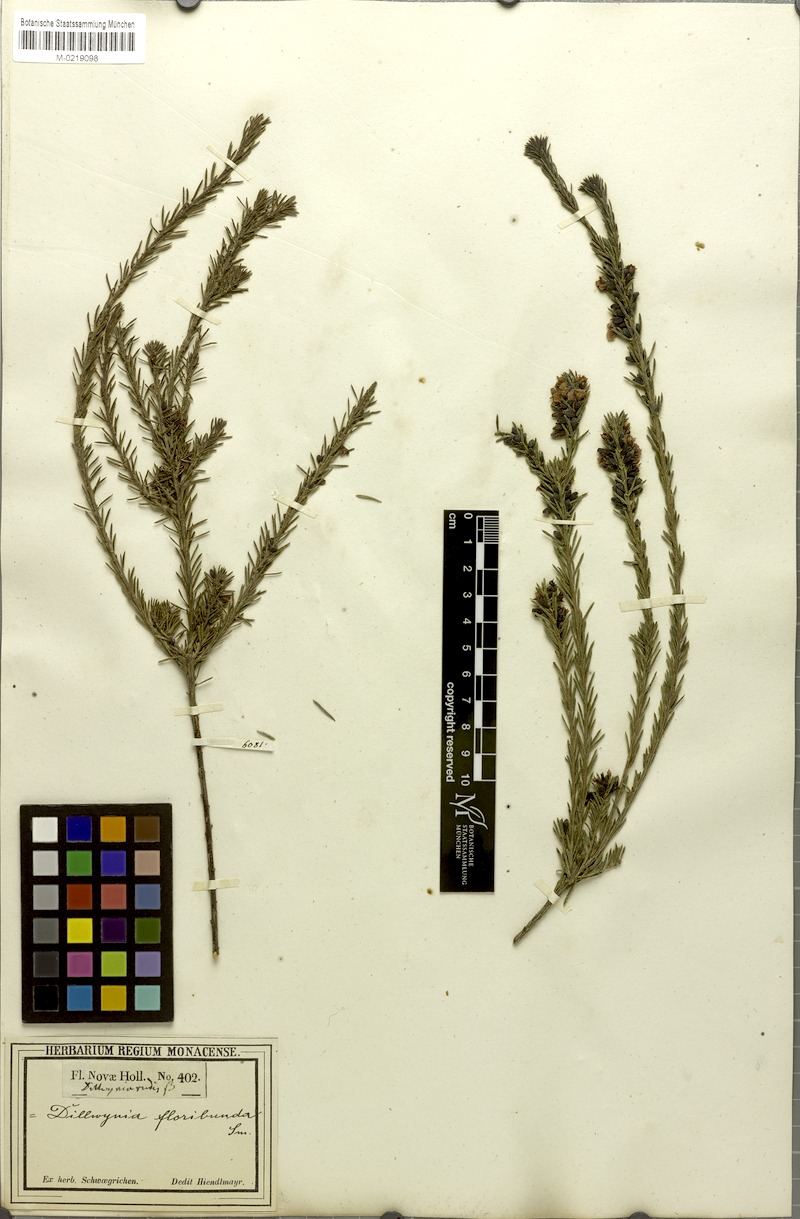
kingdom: Plantae
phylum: Tracheophyta
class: Magnoliopsida
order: Fabales
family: Fabaceae
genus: Dillwynia
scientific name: Dillwynia floribunda
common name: Eggs-and-bacon
